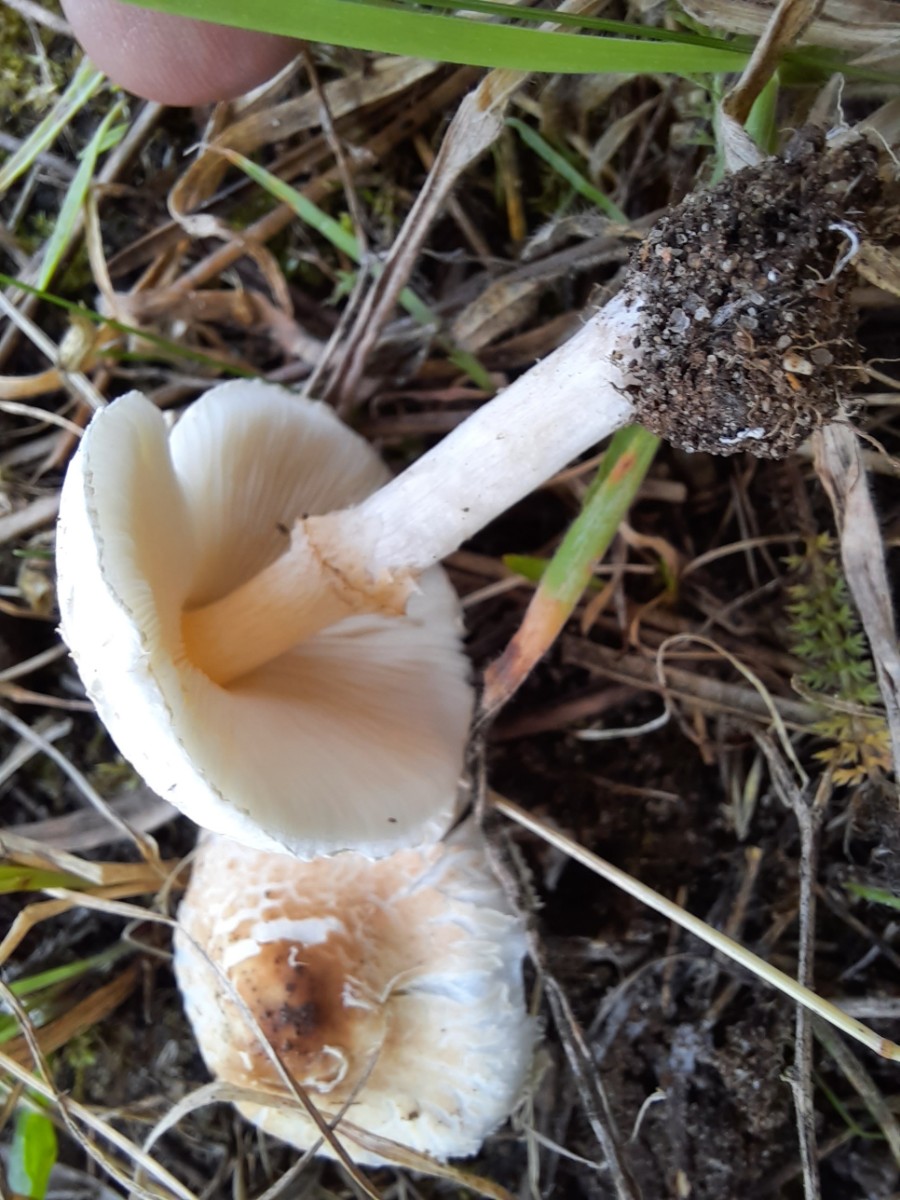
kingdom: Fungi
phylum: Basidiomycota
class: Agaricomycetes
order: Agaricales
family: Agaricaceae
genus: Lepiota
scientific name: Lepiota cristata
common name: stinkende parasolhat
